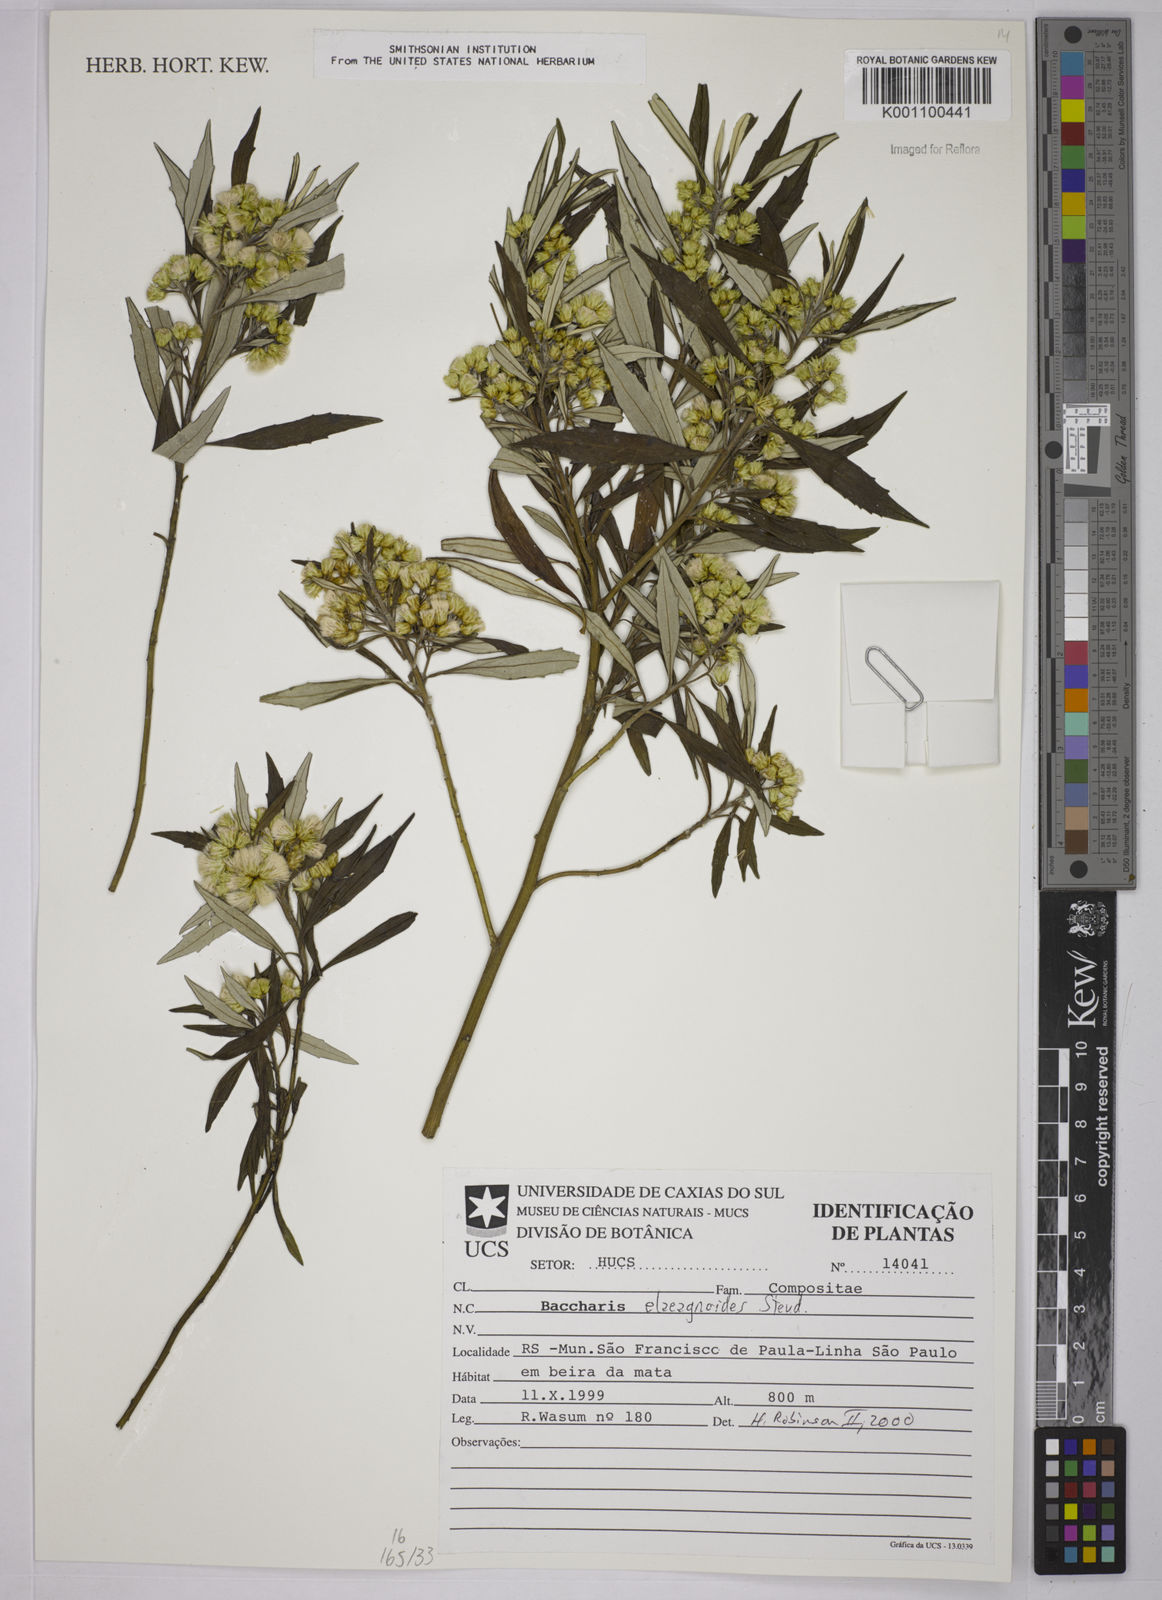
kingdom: Plantae
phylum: Tracheophyta
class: Magnoliopsida
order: Asterales
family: Asteraceae
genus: Baccharis
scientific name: Baccharis
